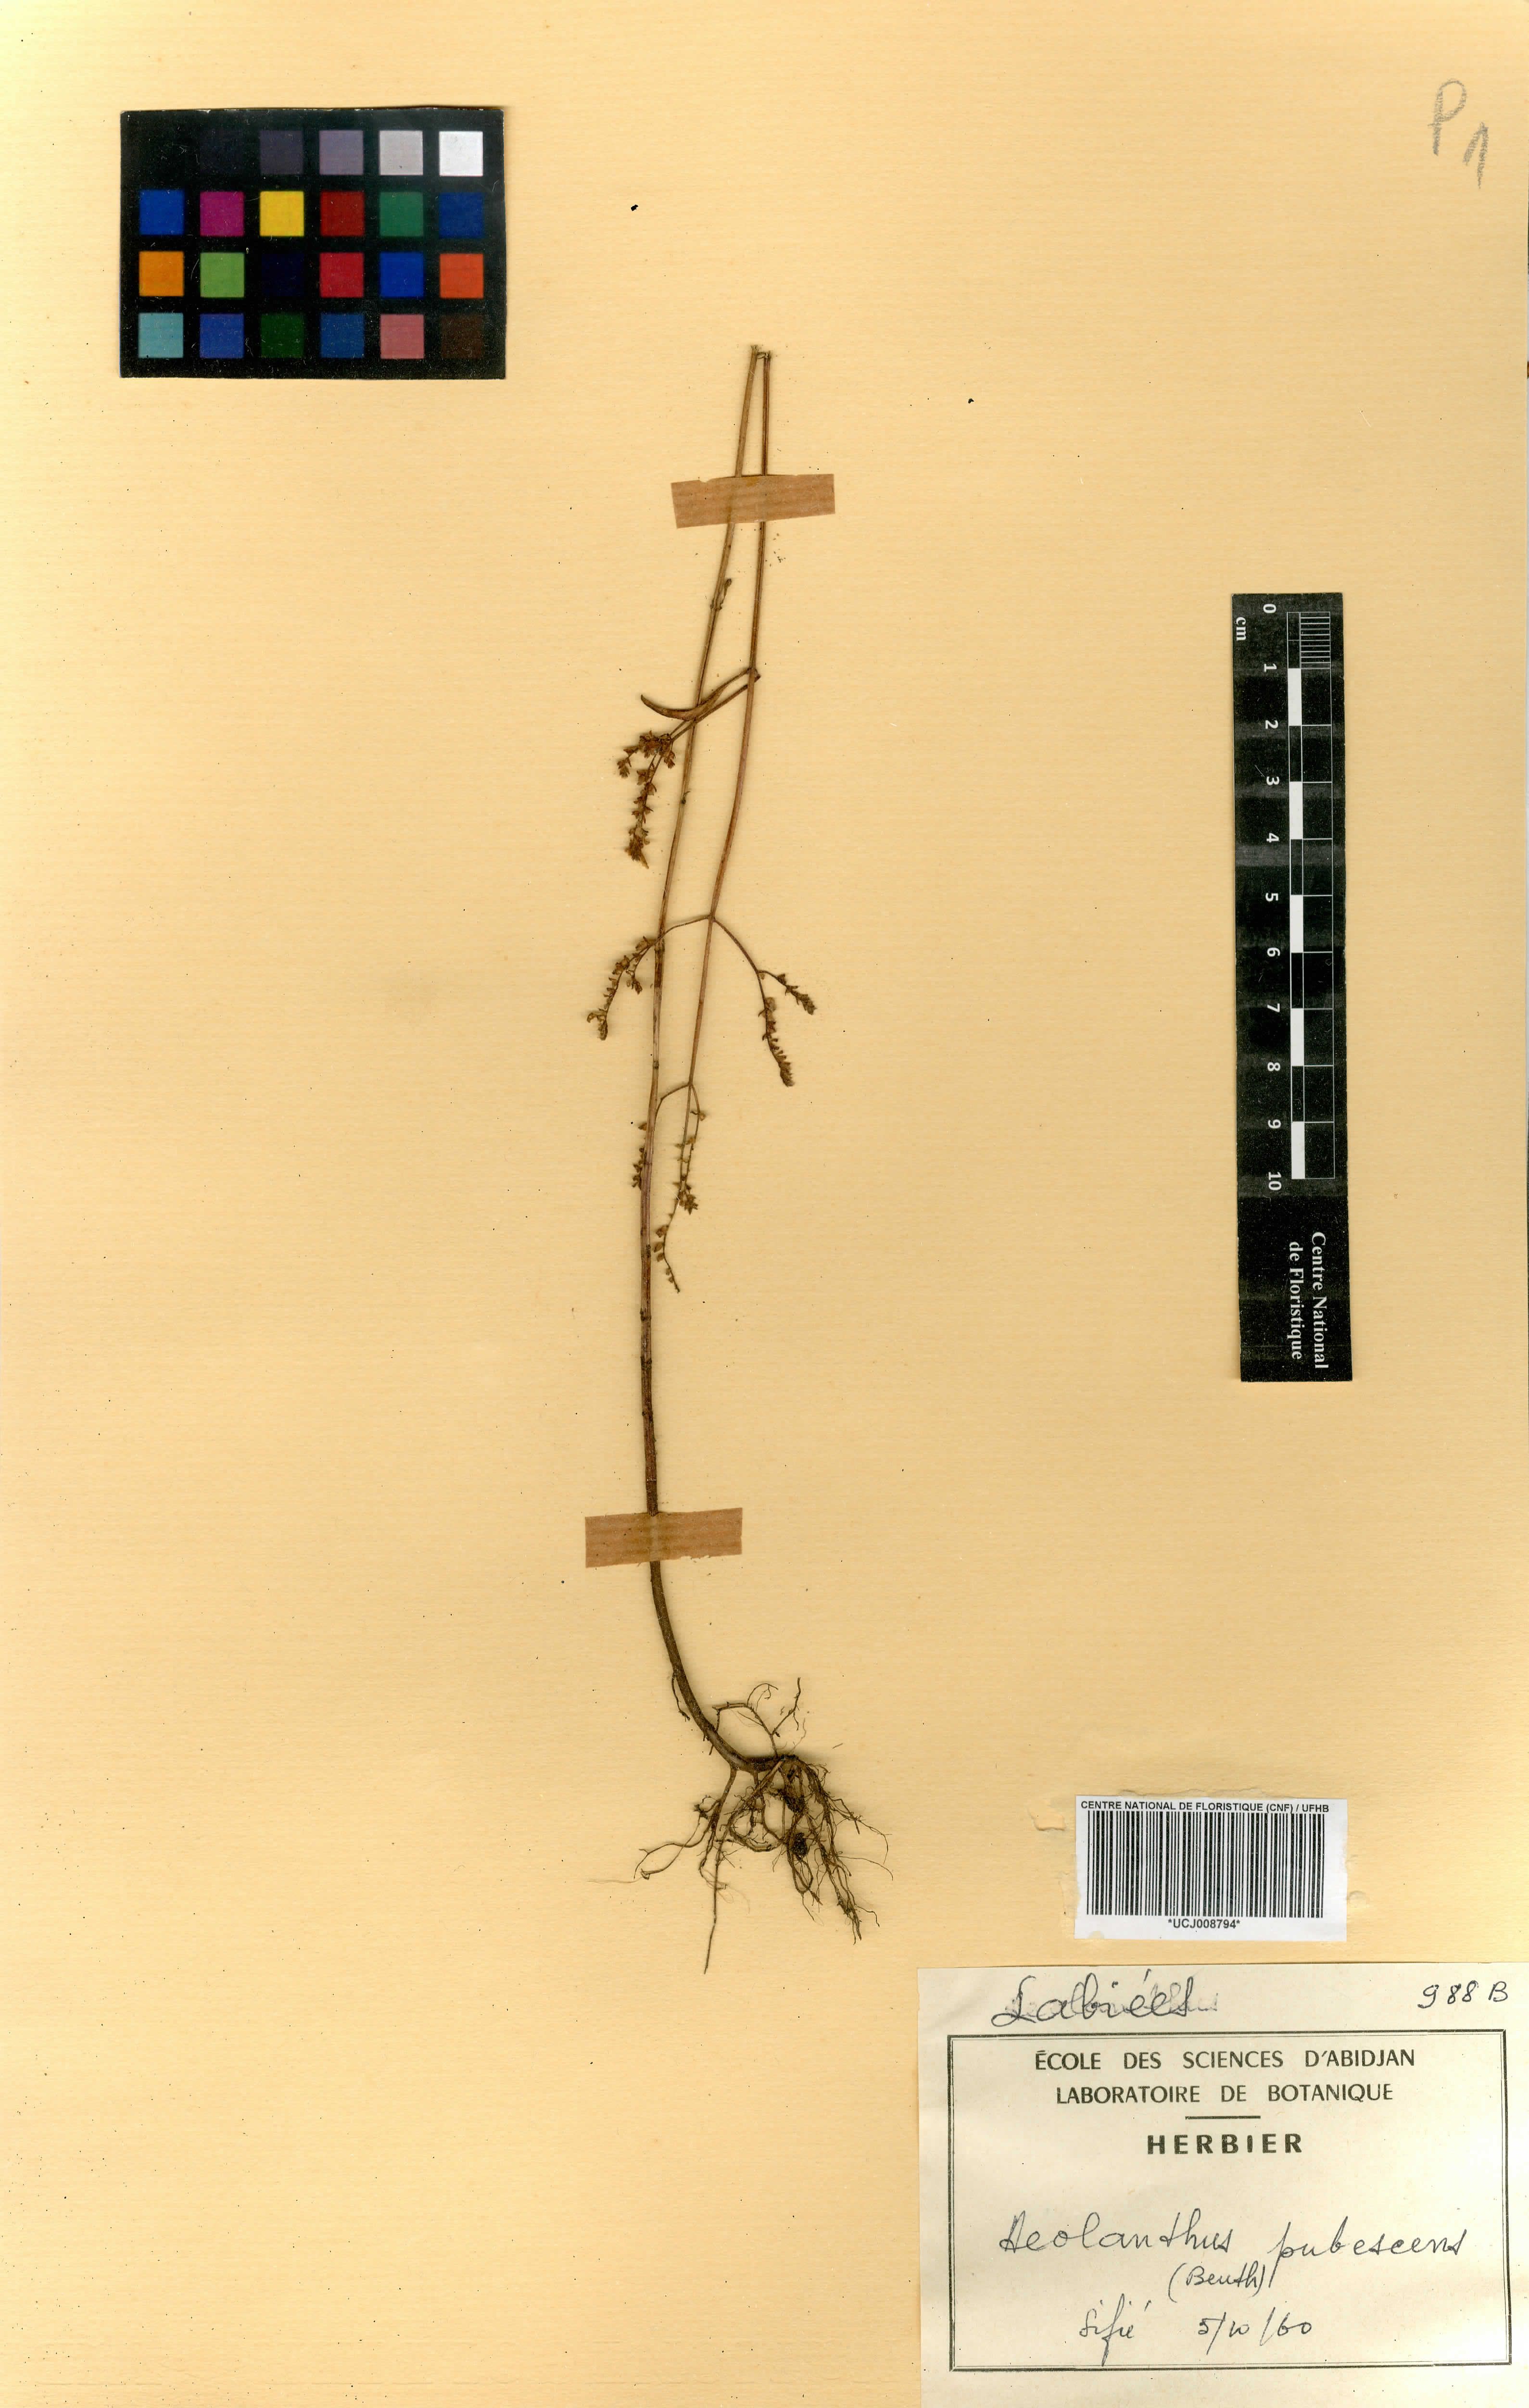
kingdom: Plantae
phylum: Tracheophyta
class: Magnoliopsida
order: Lamiales
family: Lamiaceae
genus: Aeollanthus
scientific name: Aeollanthus pubescens
